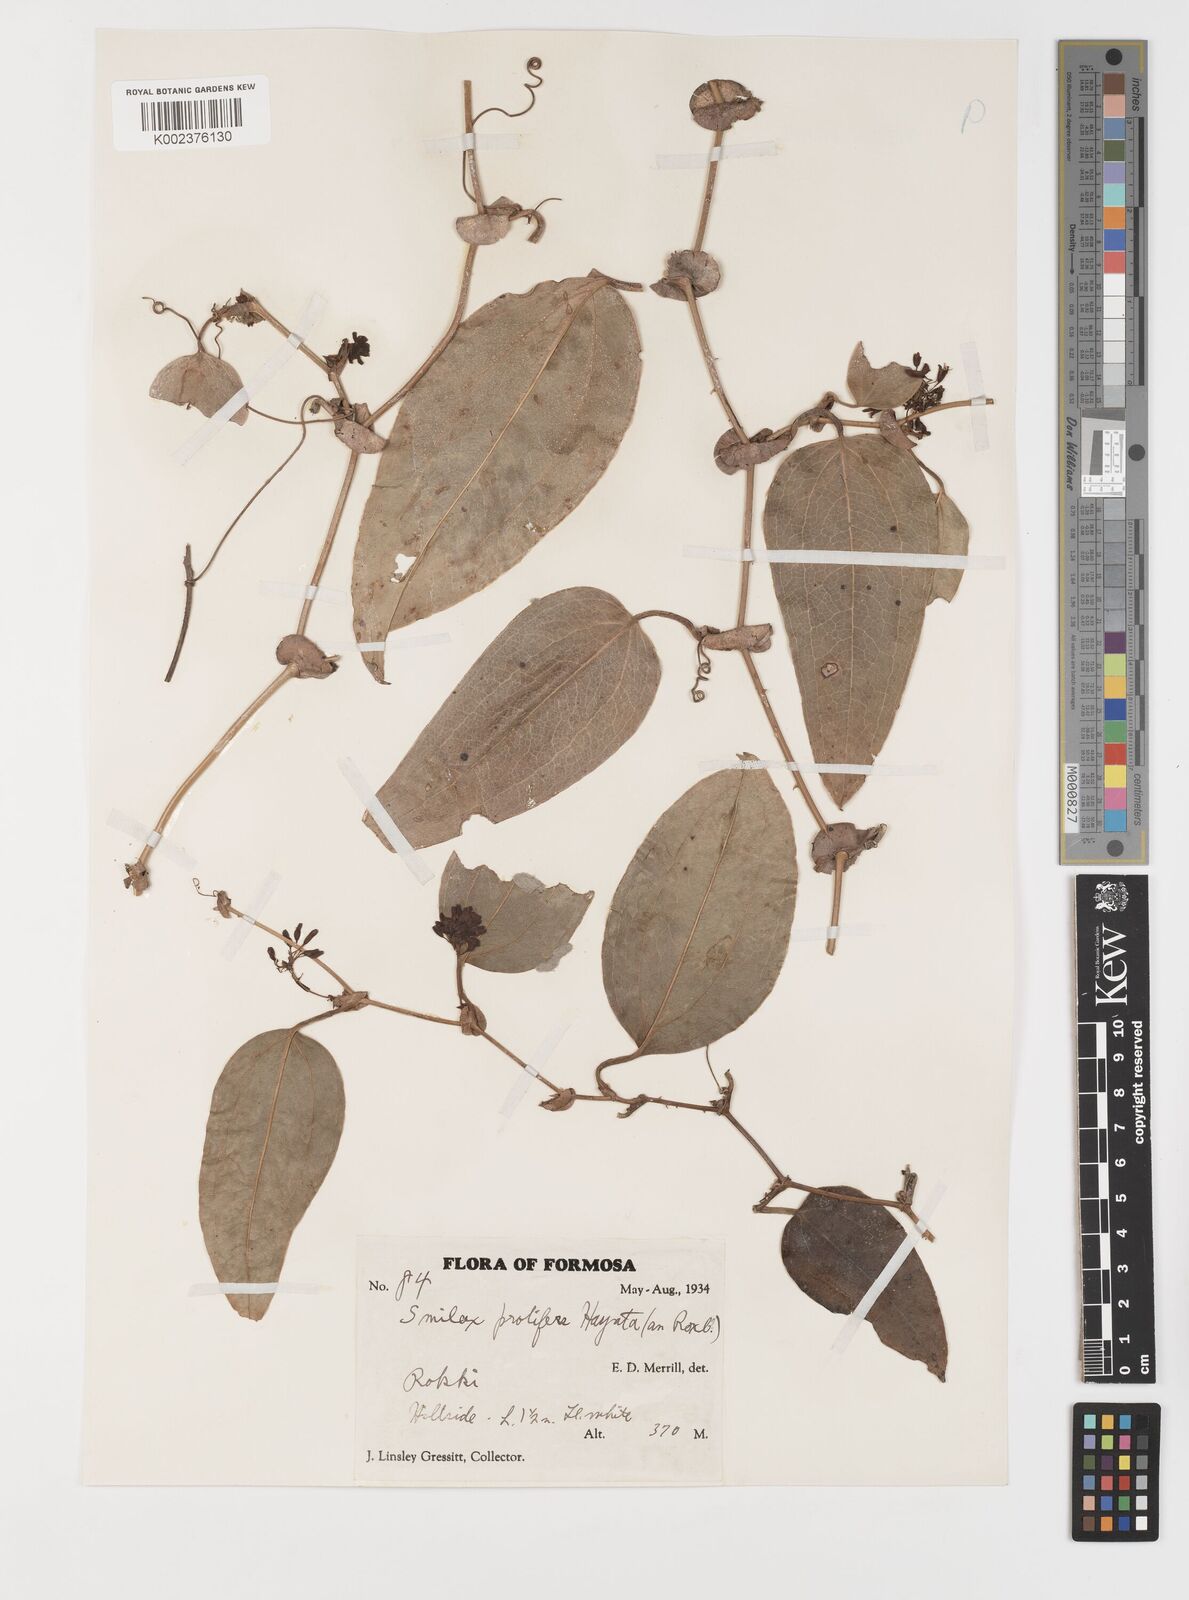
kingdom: Plantae
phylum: Tracheophyta
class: Liliopsida
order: Liliales
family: Smilacaceae
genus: Smilax
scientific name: Smilax
